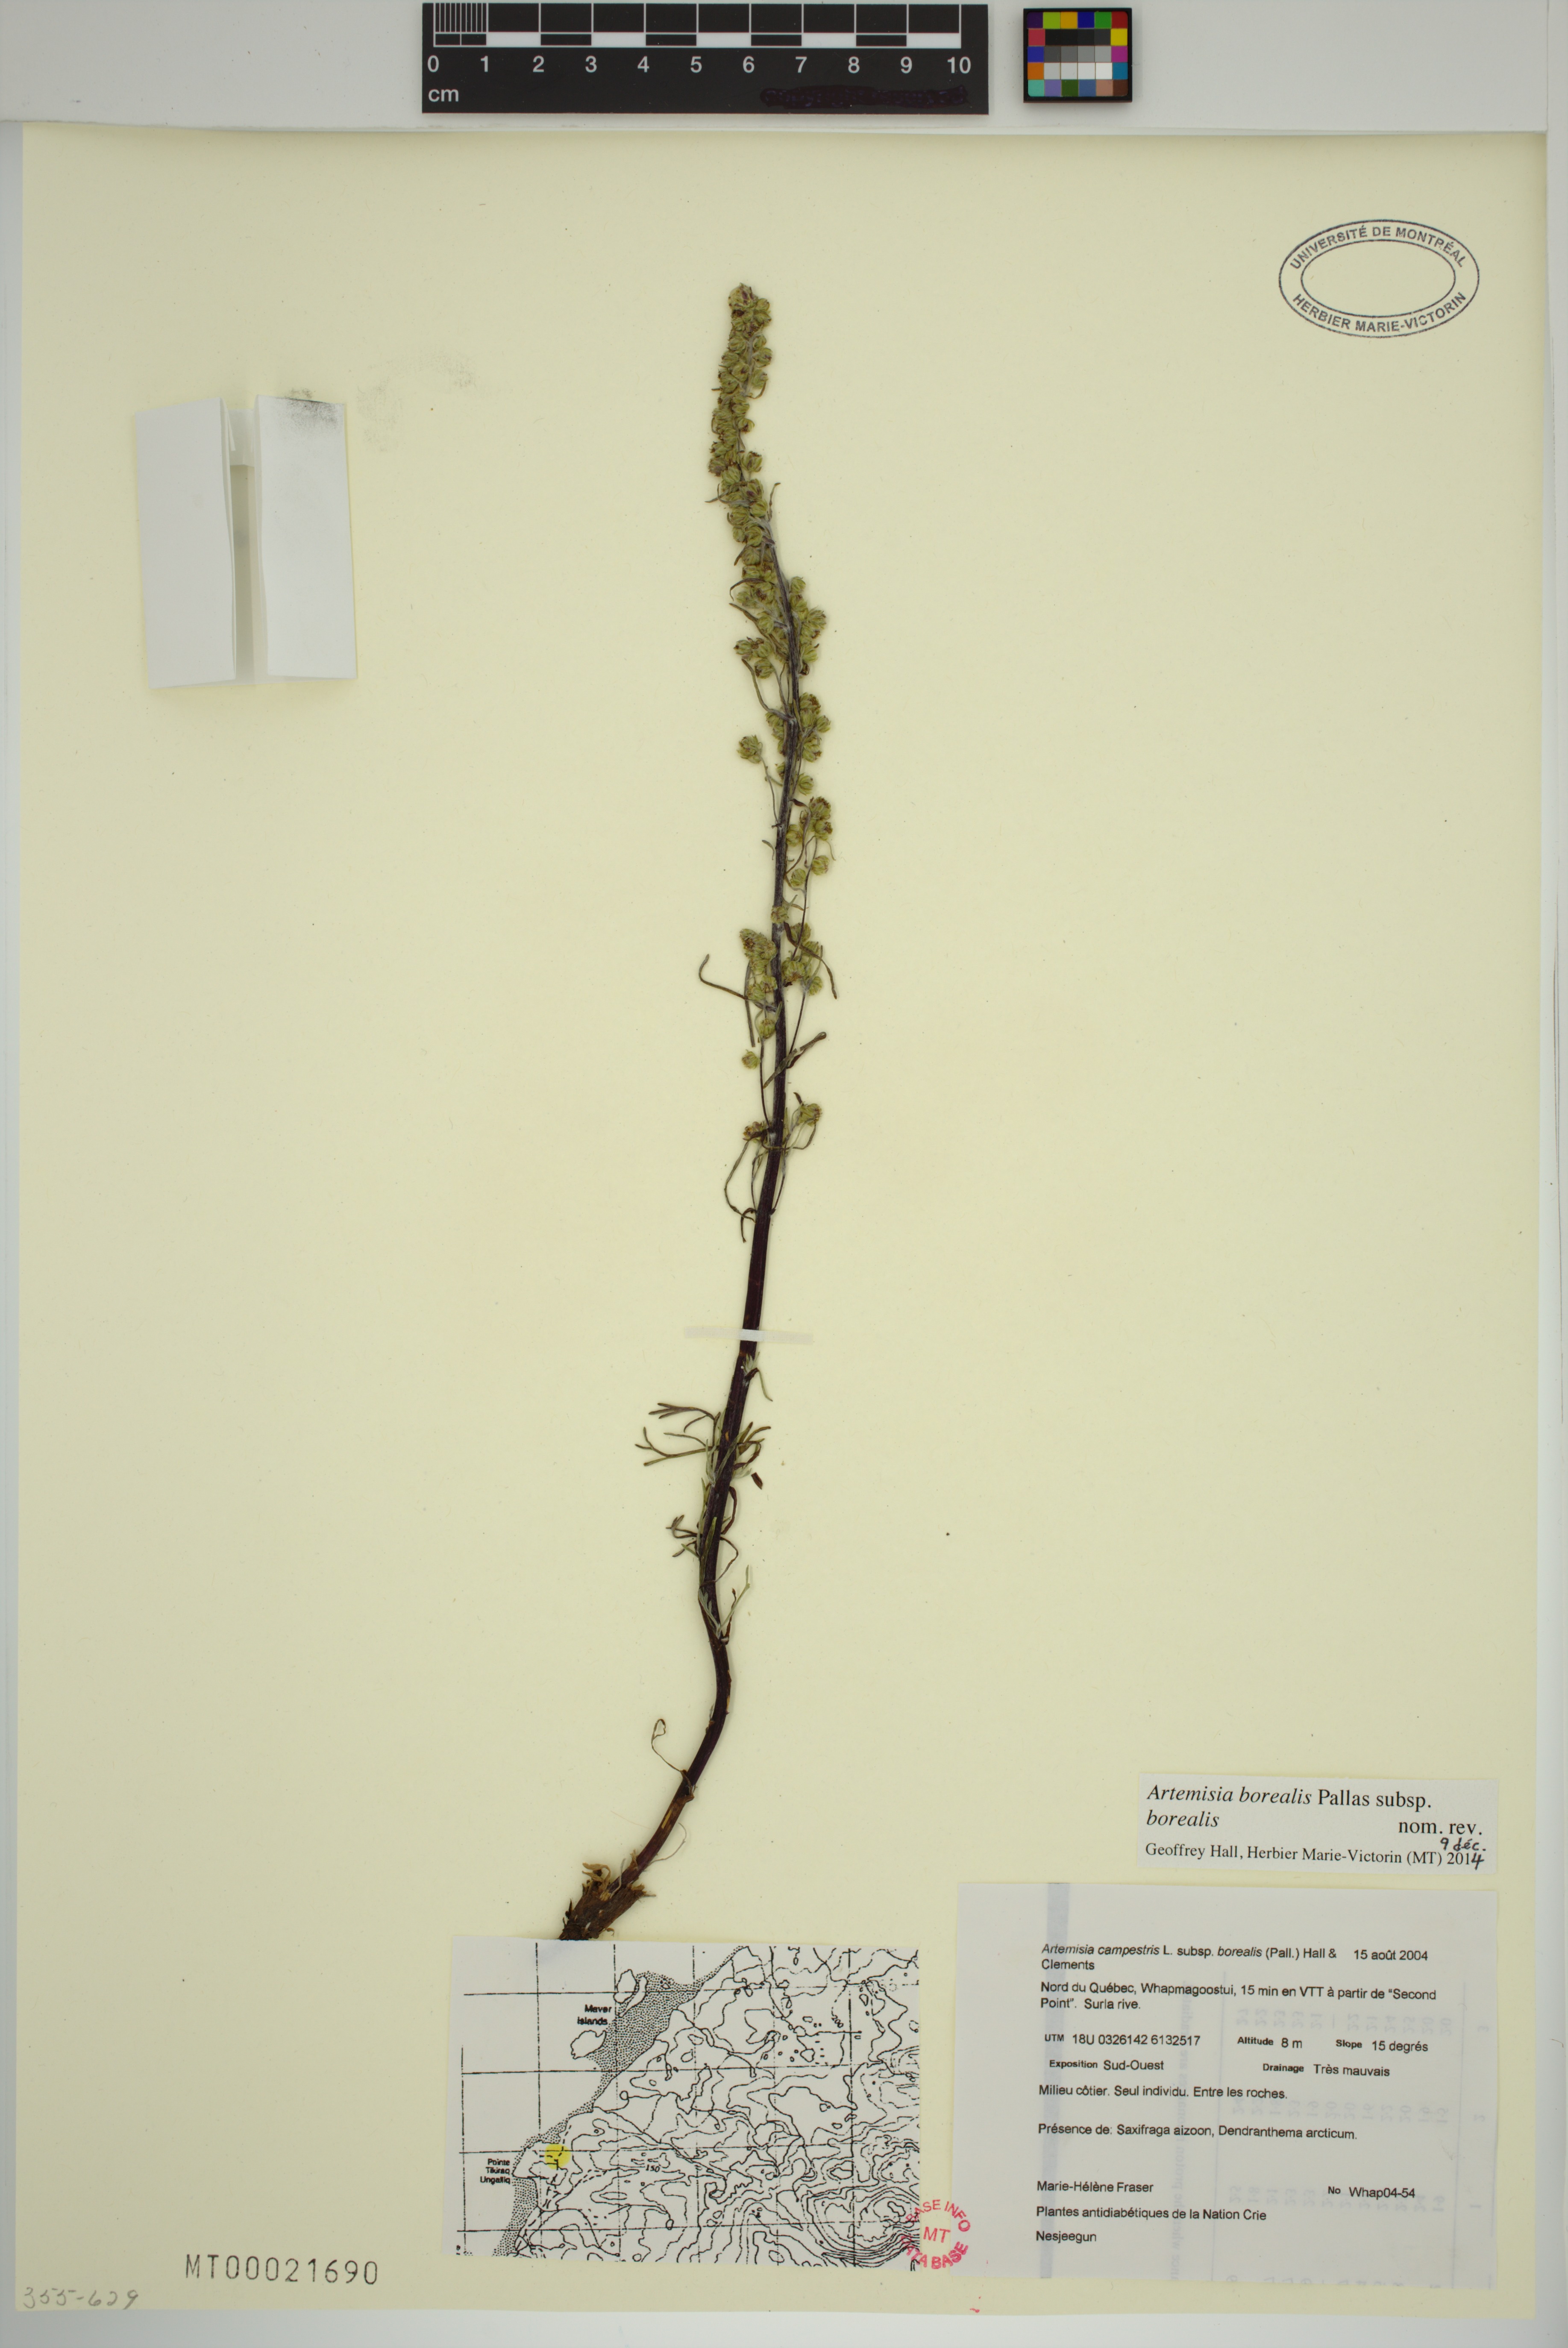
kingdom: Plantae
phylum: Tracheophyta
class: Magnoliopsida
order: Asterales
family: Asteraceae
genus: Artemisia
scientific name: Artemisia borealis
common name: Boreal sage
